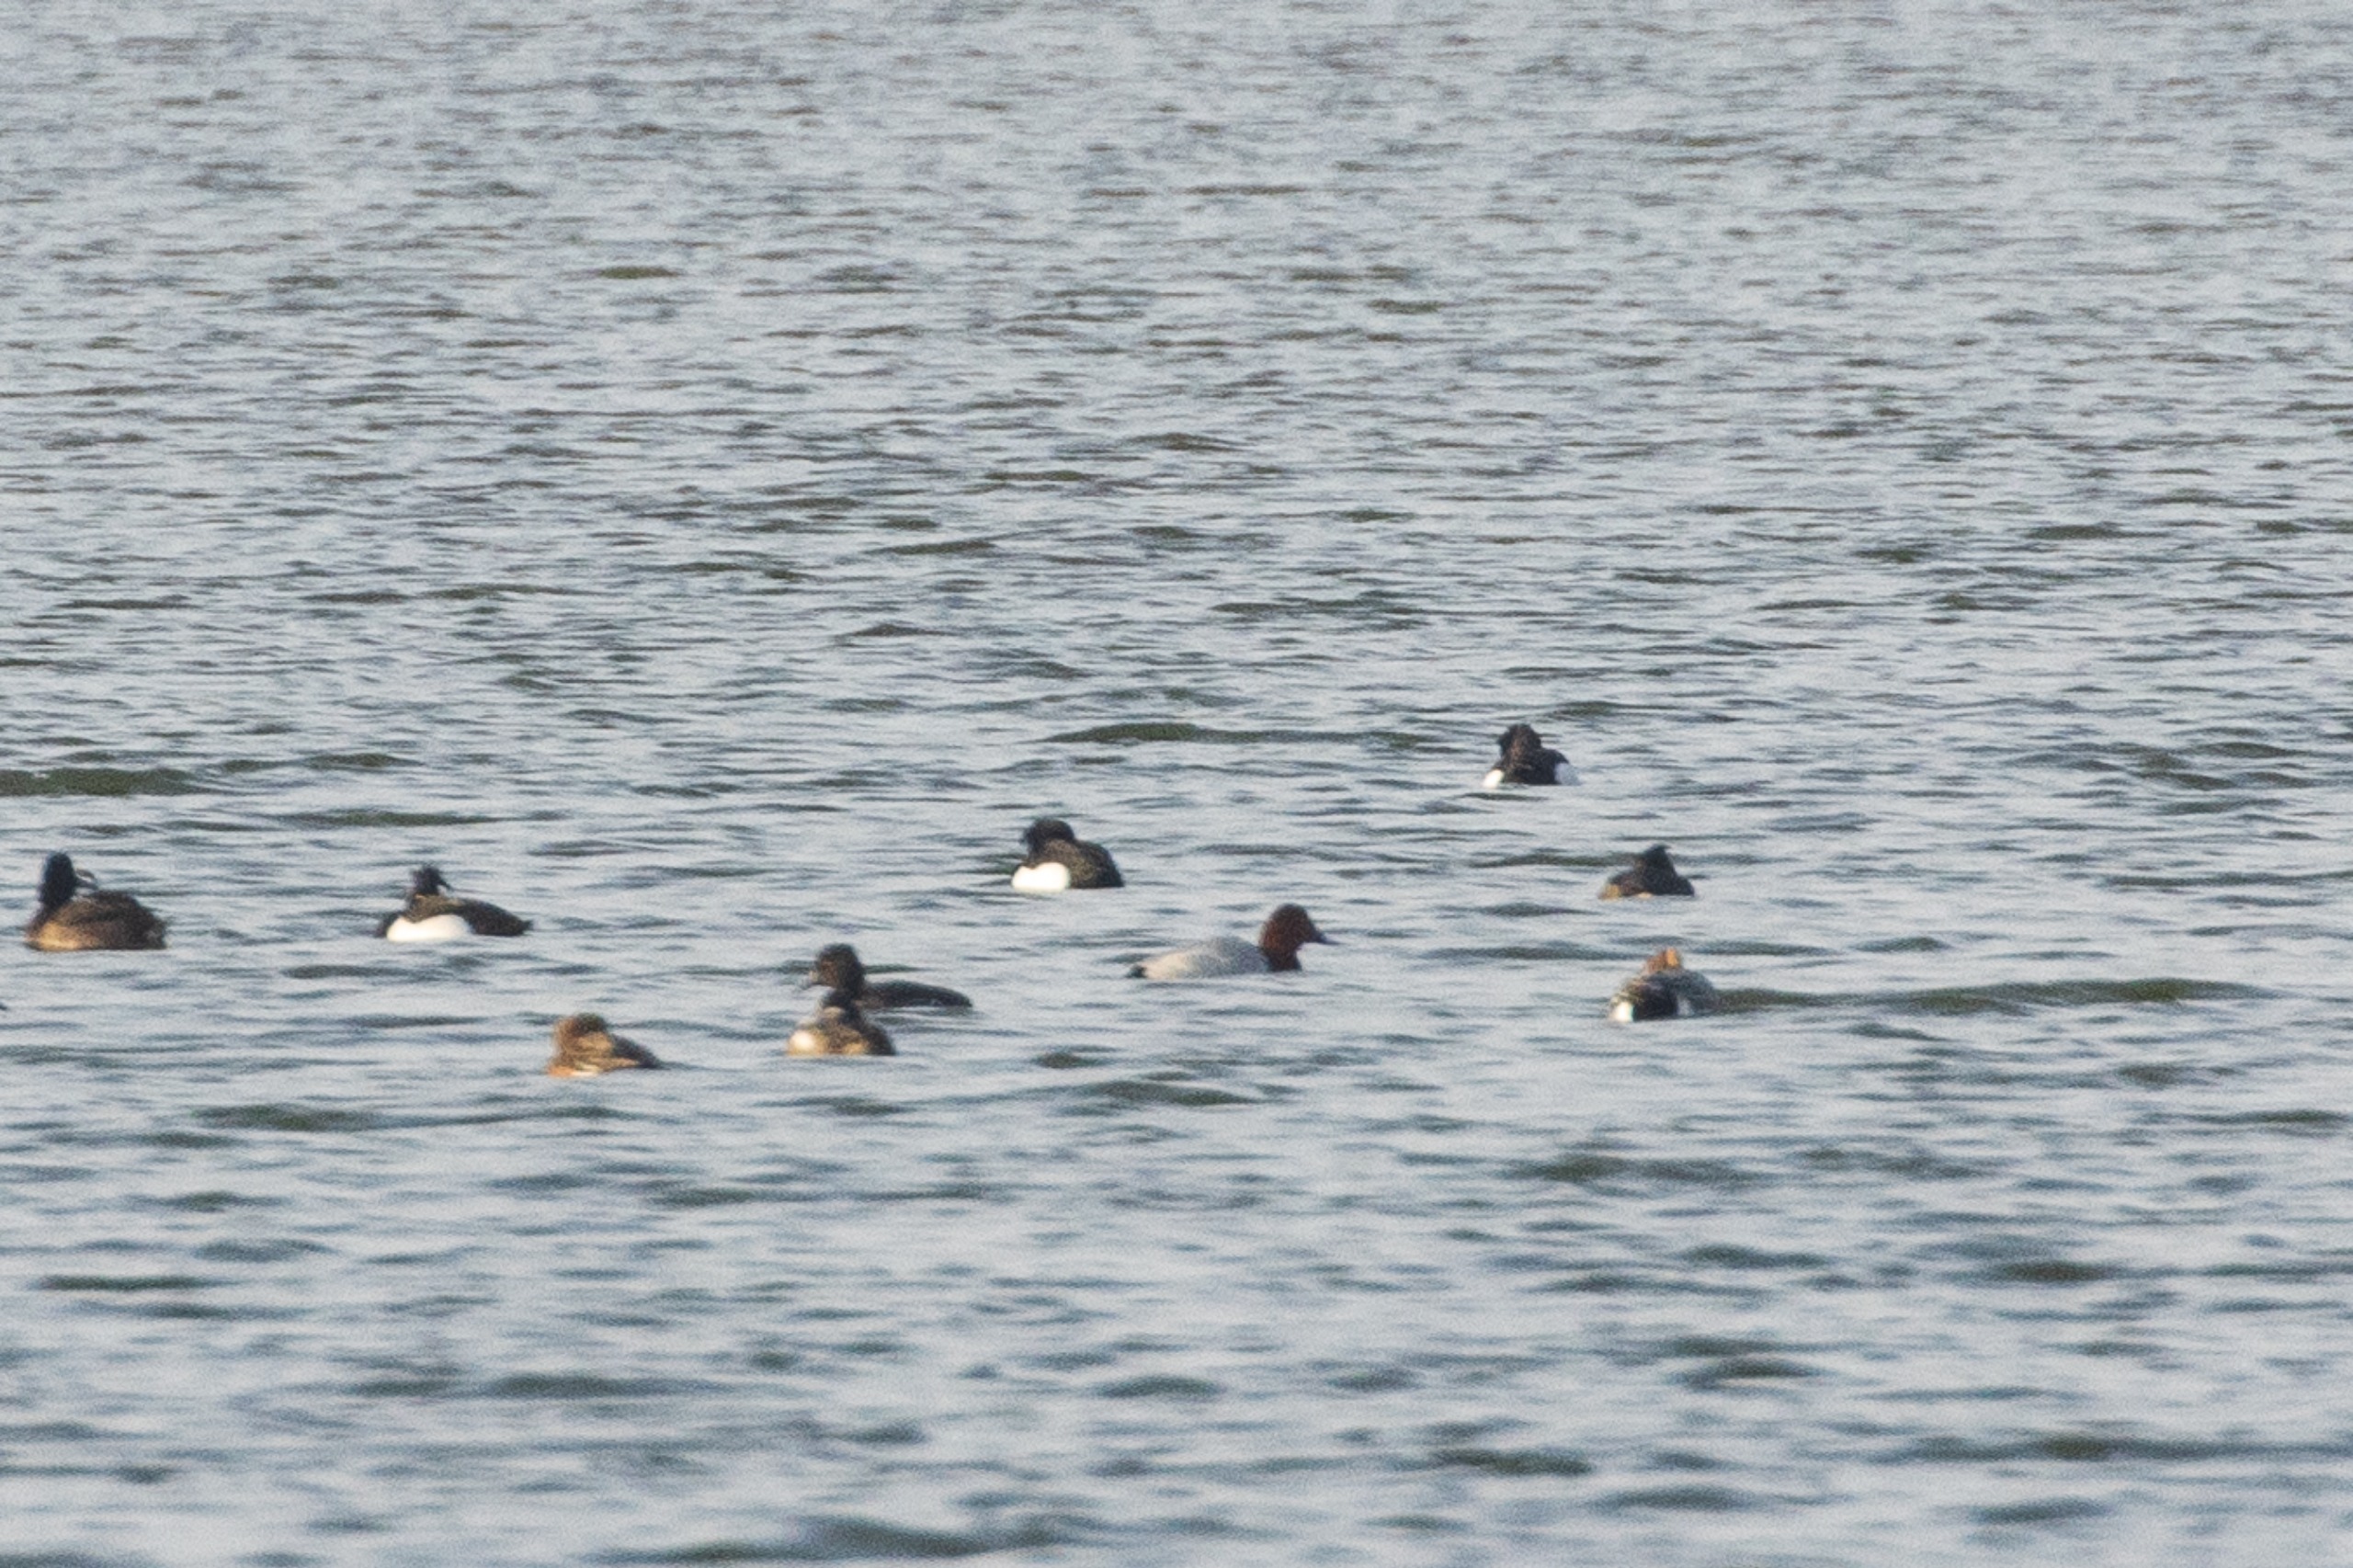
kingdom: Animalia
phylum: Chordata
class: Aves
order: Anseriformes
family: Anatidae
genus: Aythya
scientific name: Aythya ferina
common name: Taffeland
